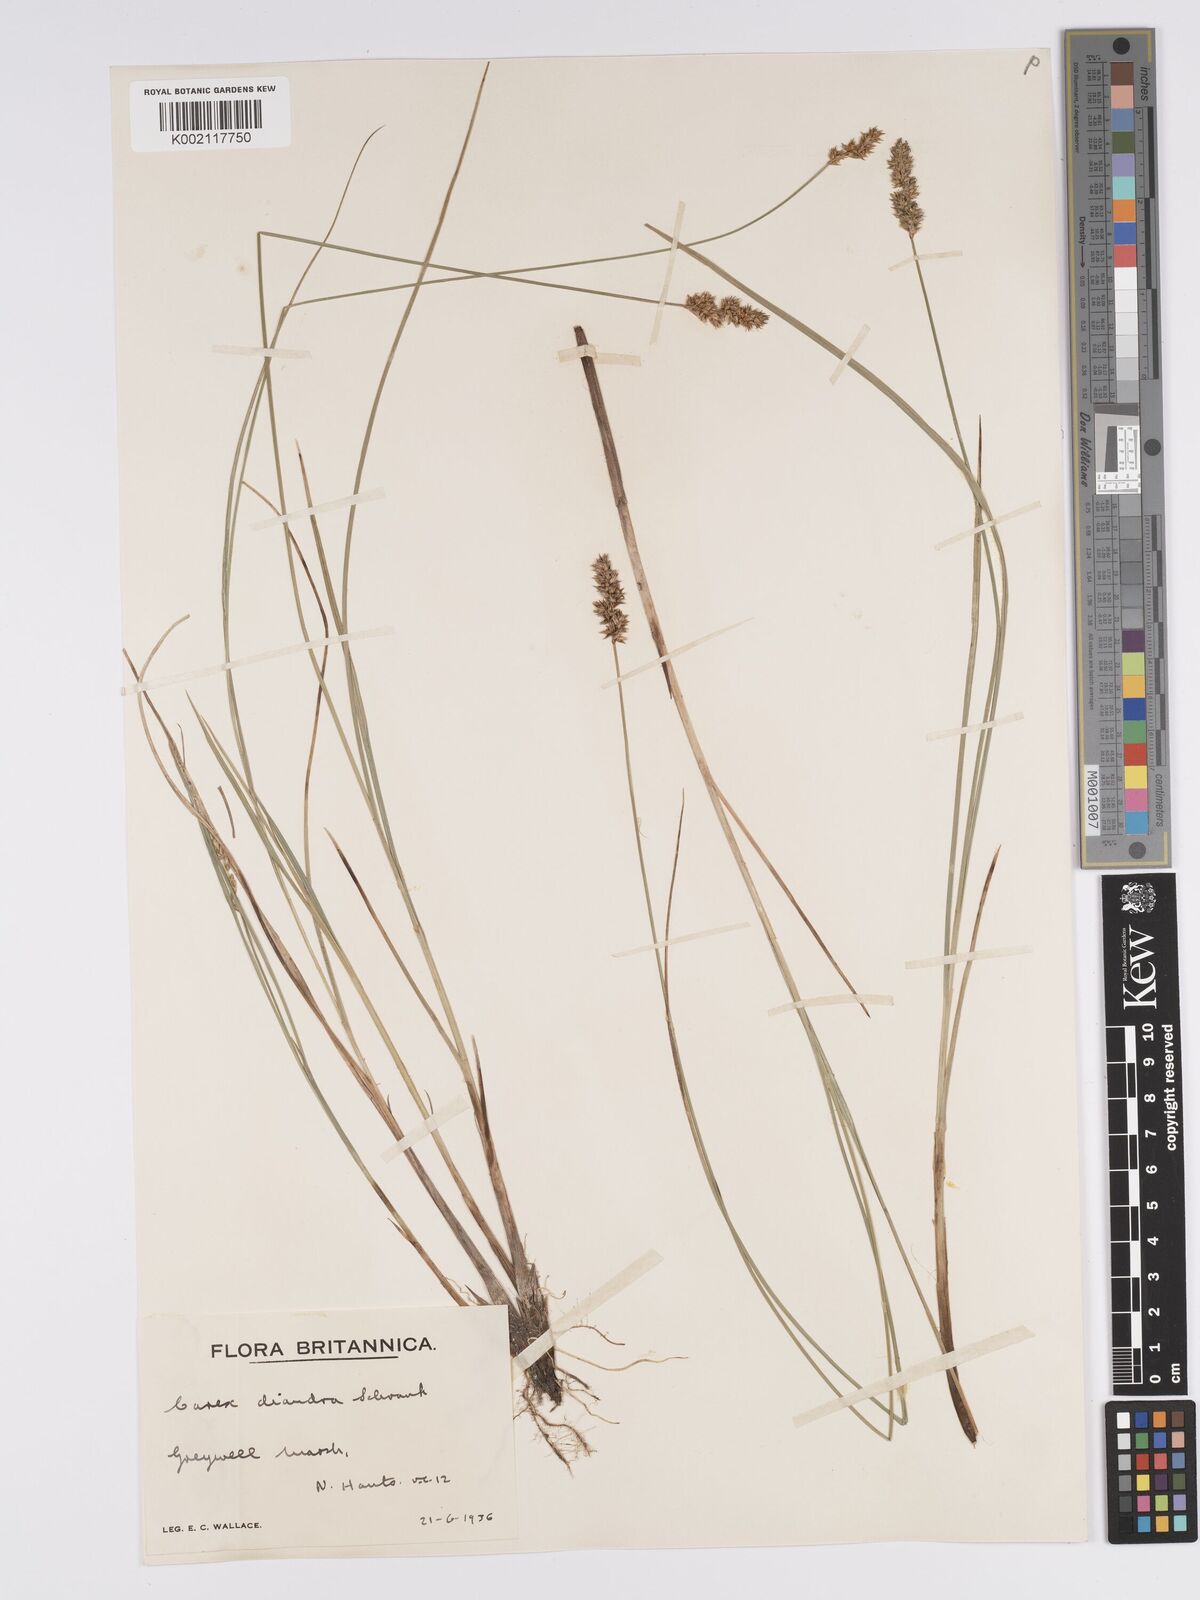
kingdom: Plantae
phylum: Tracheophyta
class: Liliopsida
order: Poales
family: Cyperaceae
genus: Carex
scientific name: Carex diandra
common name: Lesser tussock-sedge
